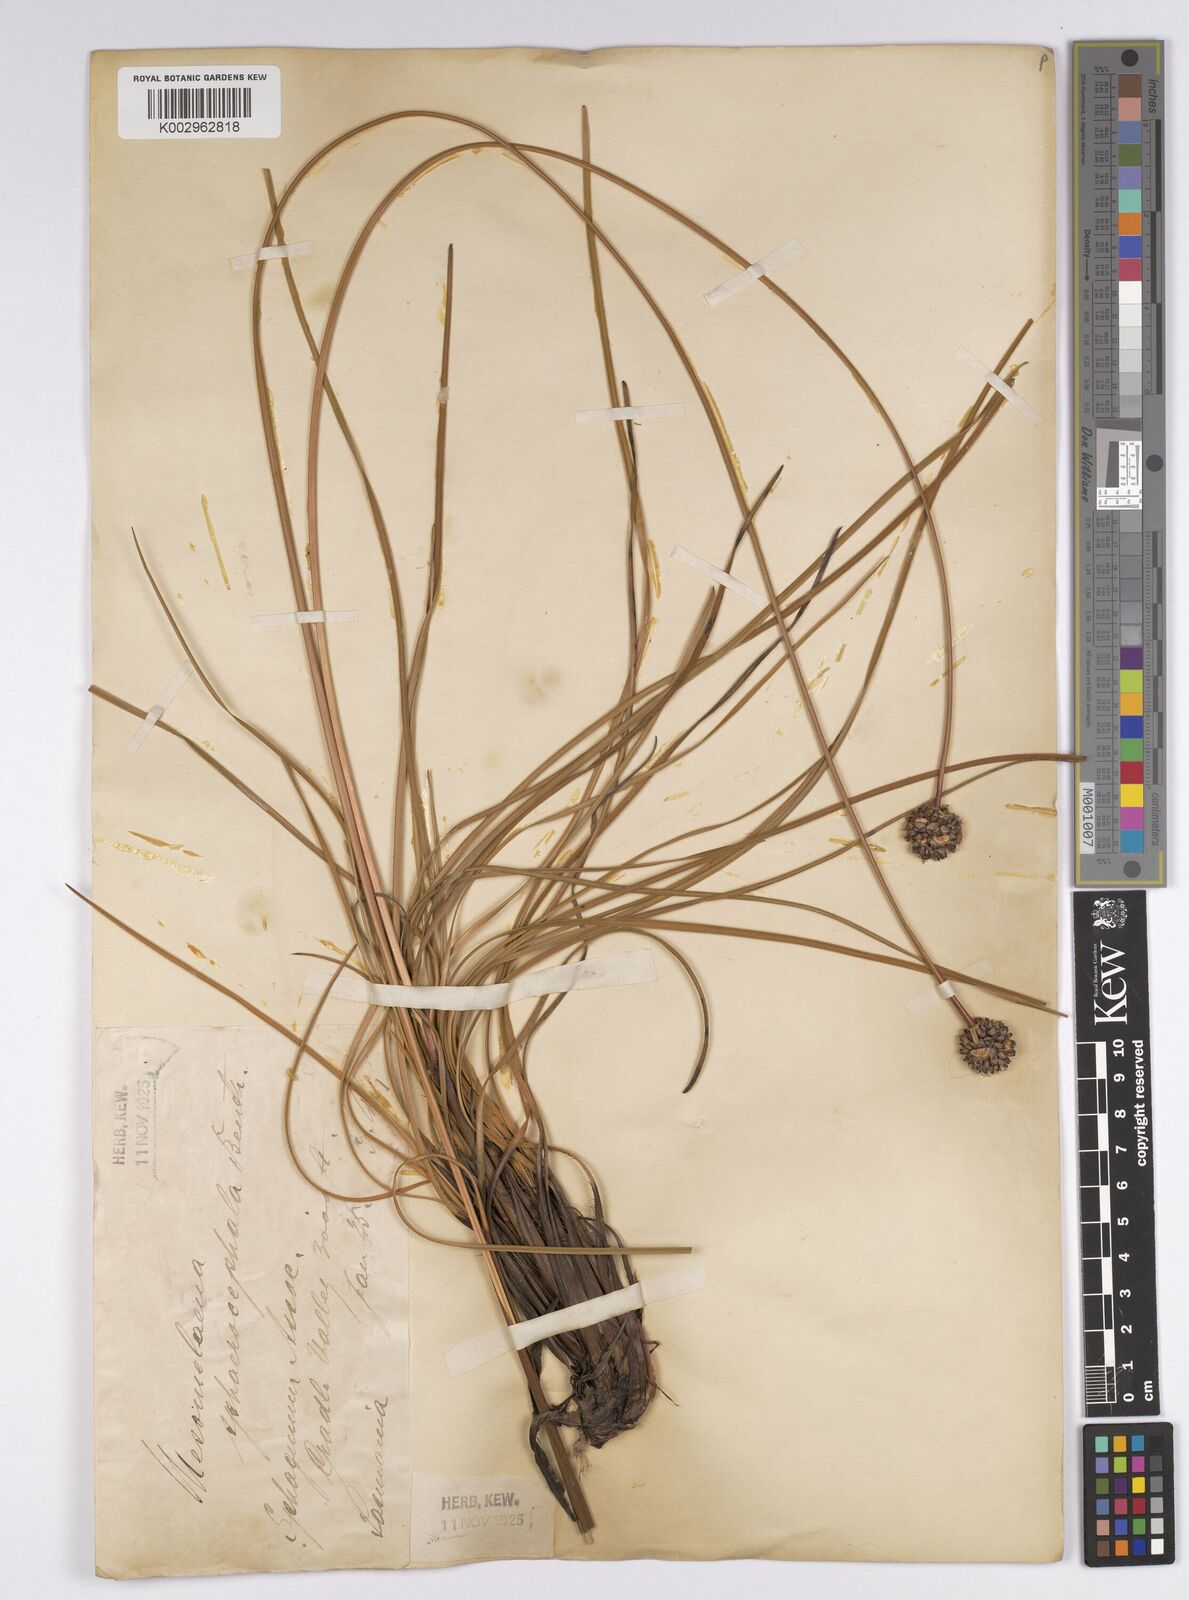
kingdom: Plantae
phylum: Tracheophyta
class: Liliopsida
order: Poales
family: Cyperaceae
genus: Gymnoschoenus
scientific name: Gymnoschoenus sphaerocephalus
